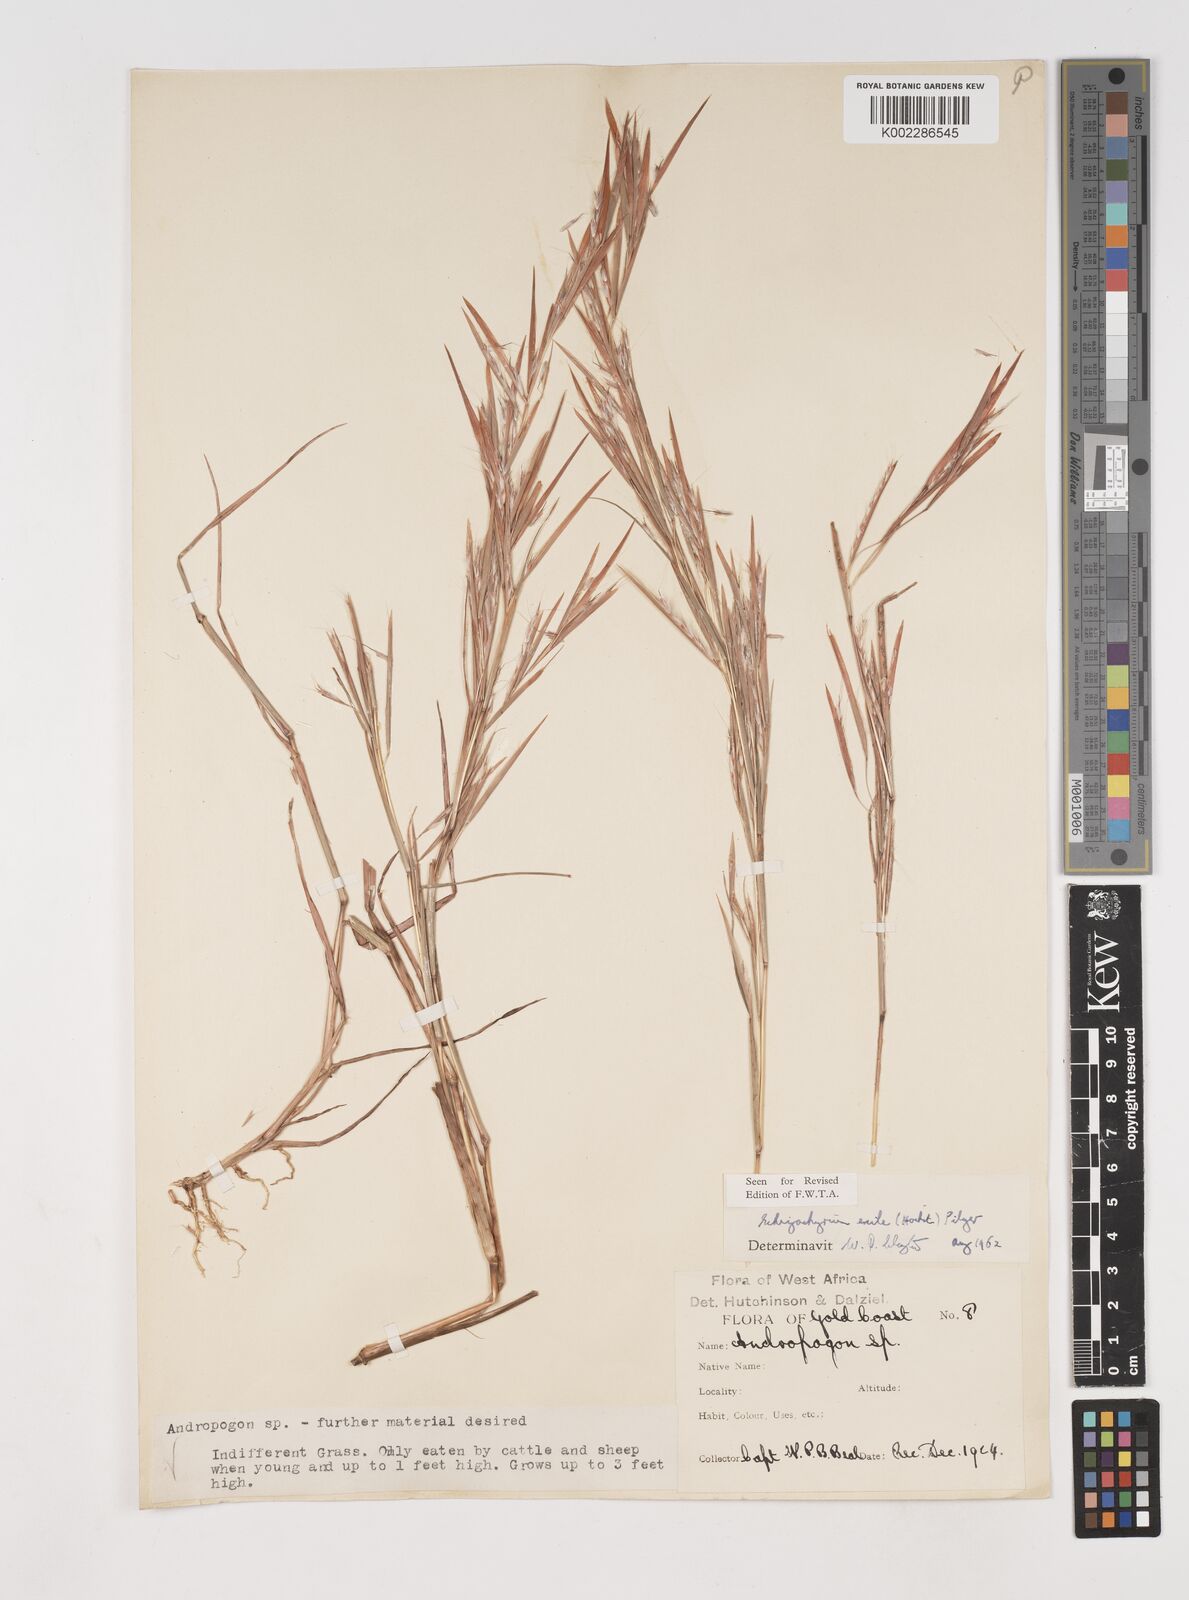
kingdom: Plantae
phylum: Tracheophyta
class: Liliopsida
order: Poales
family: Poaceae
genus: Schizachyrium
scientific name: Schizachyrium exile
